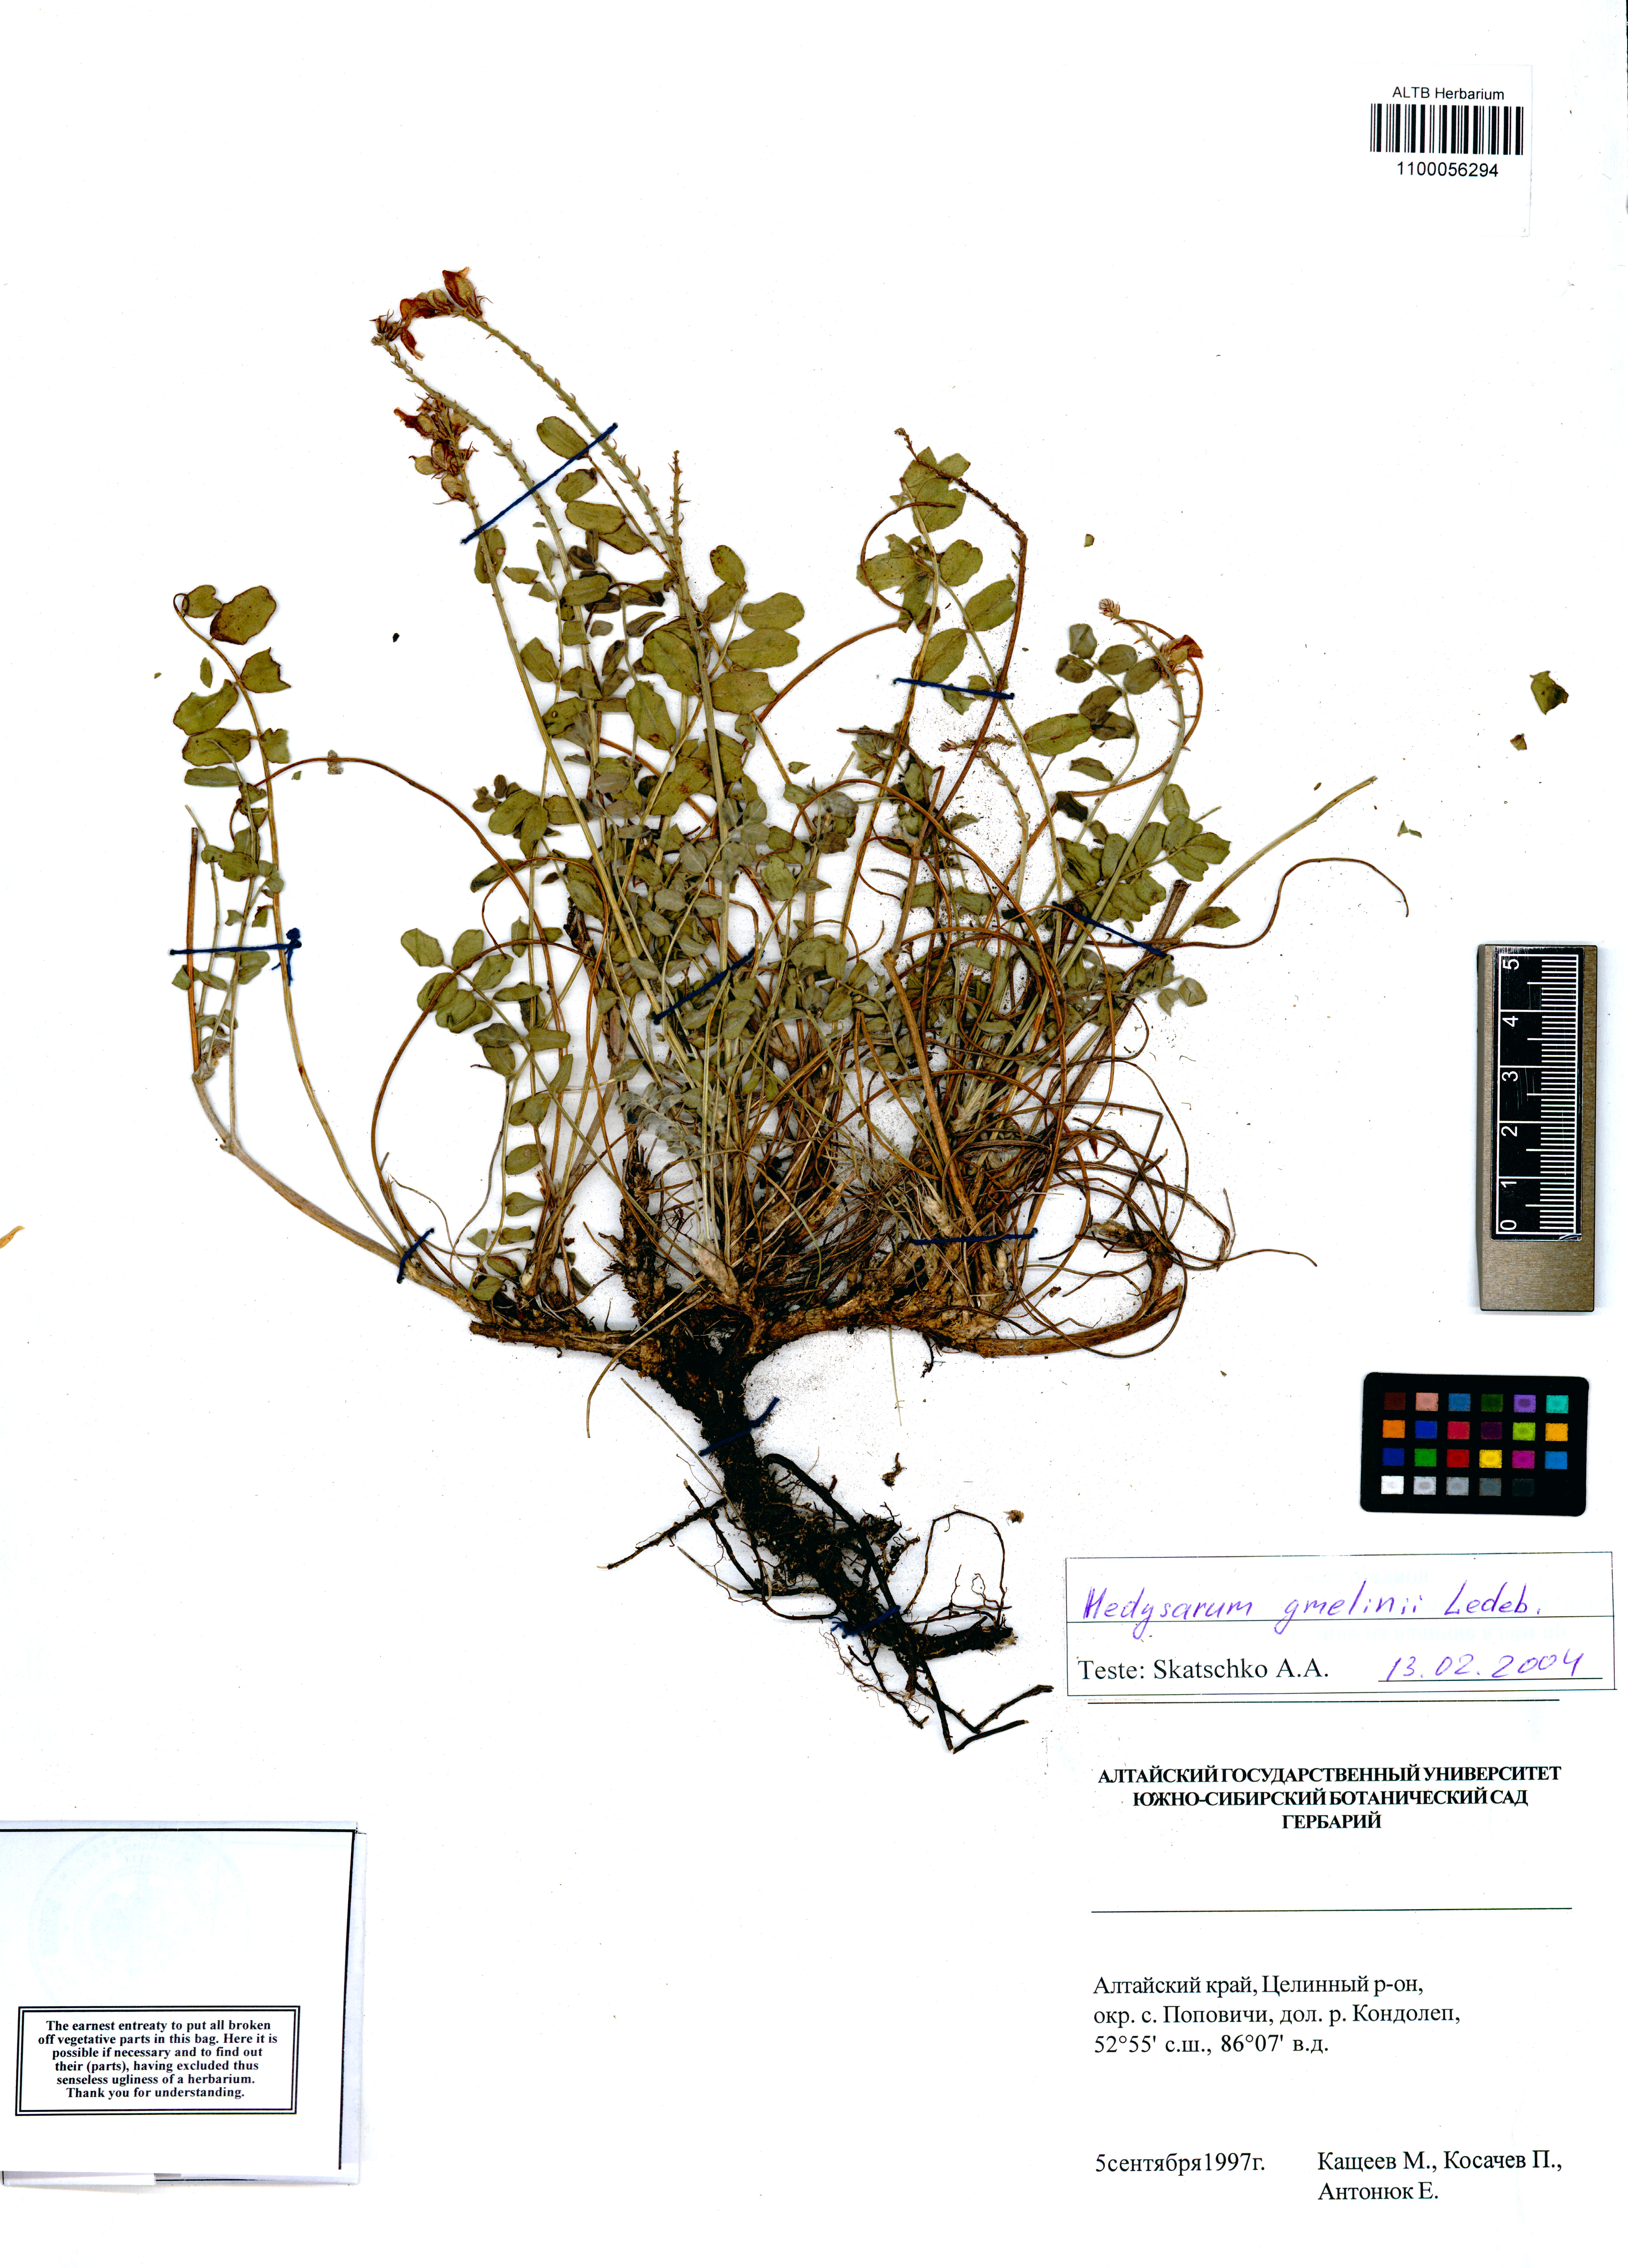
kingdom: Plantae
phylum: Tracheophyta
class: Magnoliopsida
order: Fabales
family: Fabaceae
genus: Hedysarum
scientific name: Hedysarum gmelinii
